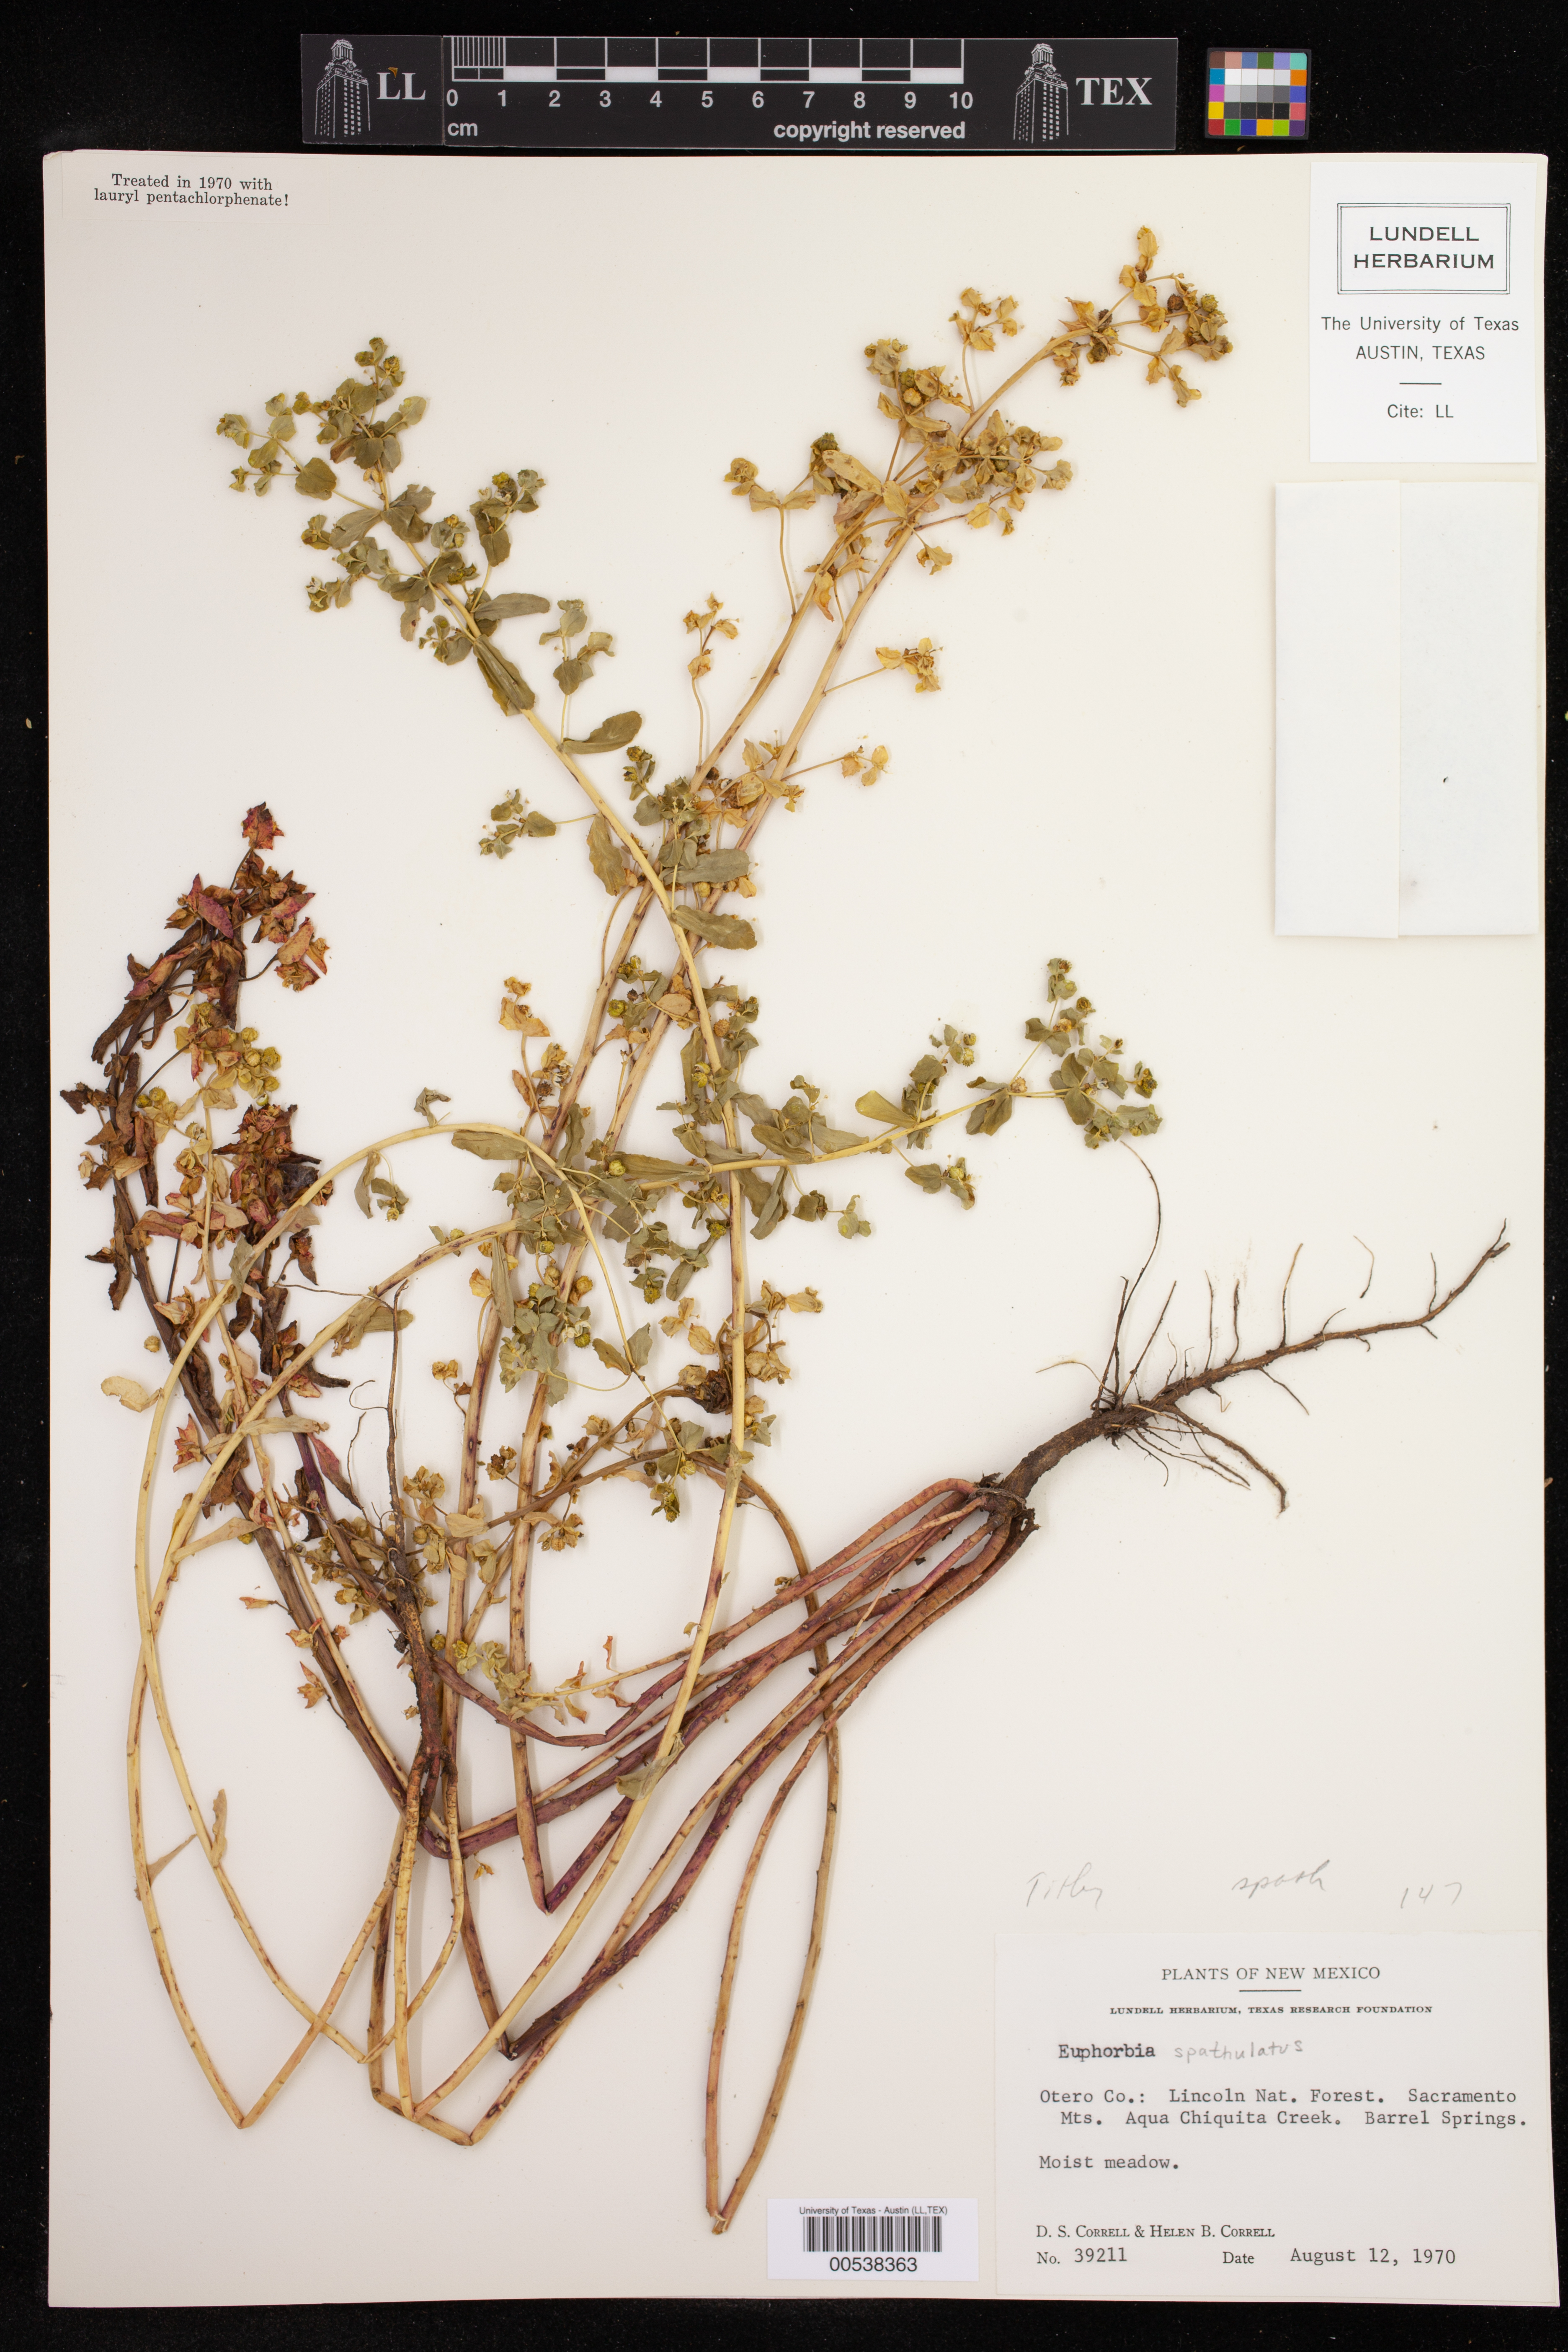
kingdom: Plantae
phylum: Tracheophyta
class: Magnoliopsida
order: Malpighiales
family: Euphorbiaceae
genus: Euphorbia
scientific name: Euphorbia spathulata
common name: Blunt spurge
